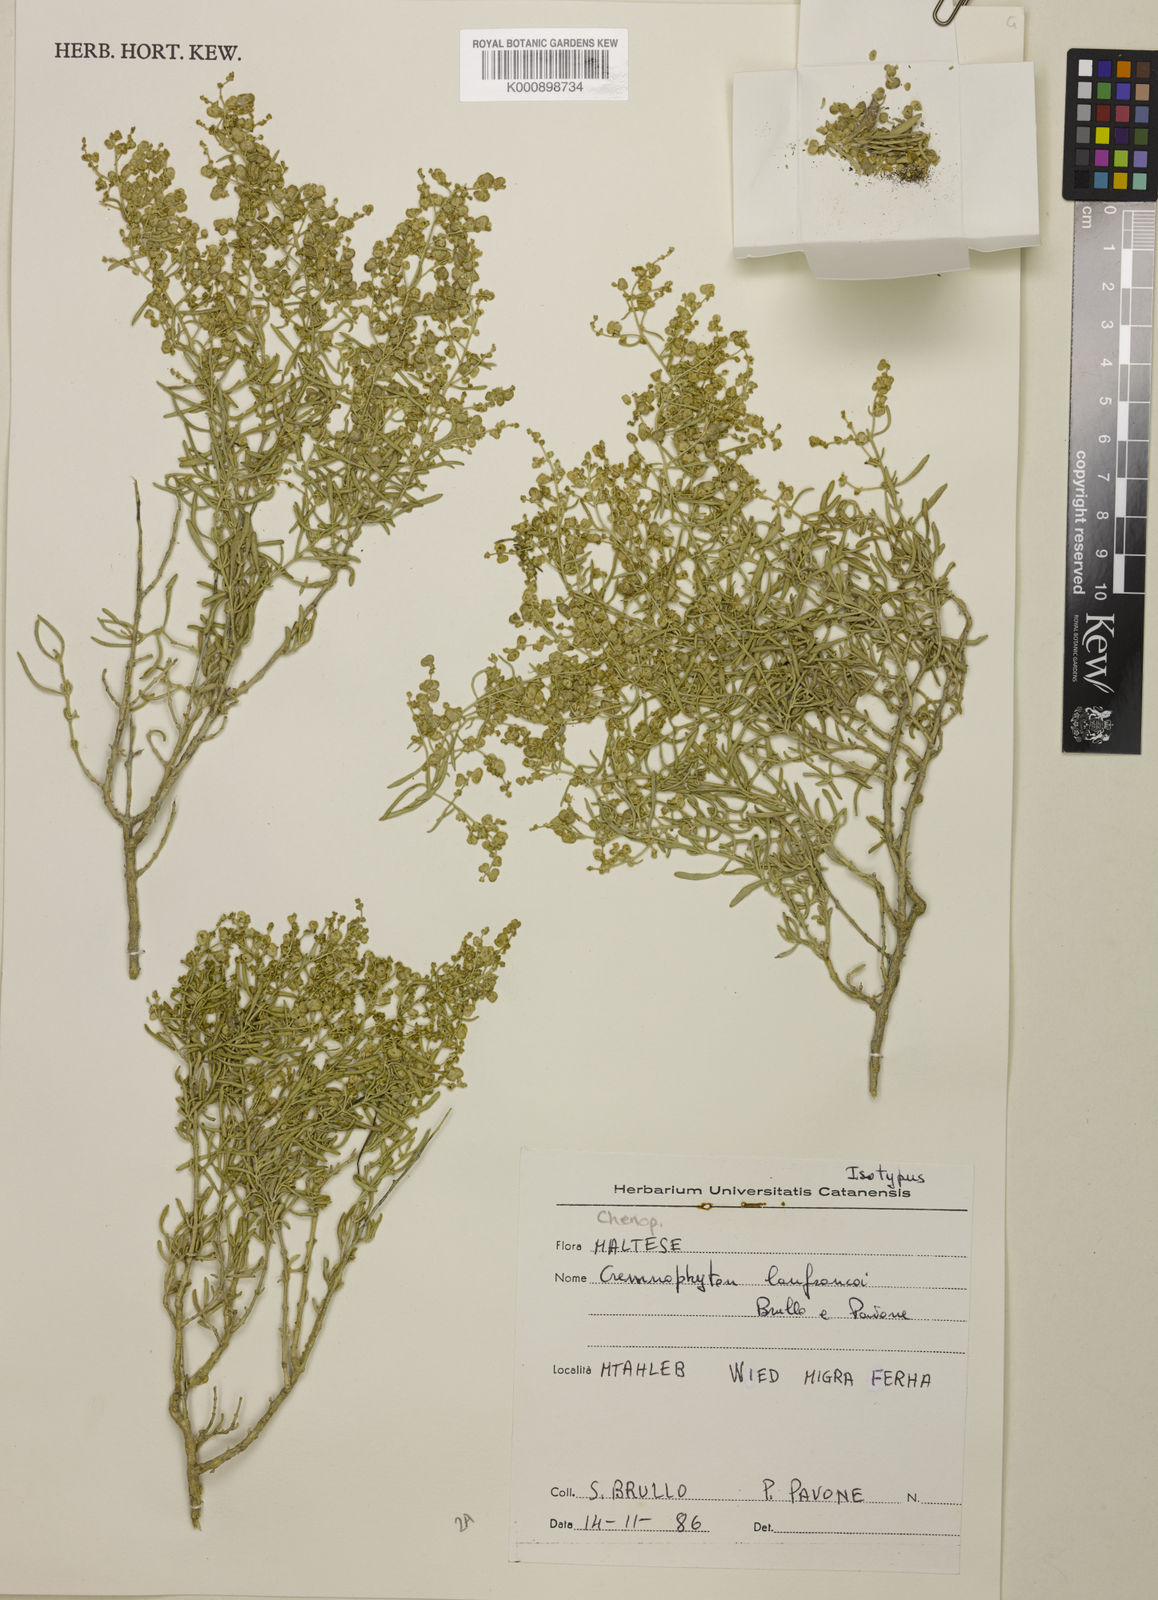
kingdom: Plantae
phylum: Tracheophyta
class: Magnoliopsida
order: Caryophyllales
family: Amaranthaceae
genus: Atriplex
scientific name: Atriplex lanfrancoi
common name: Maltese cliff orache
